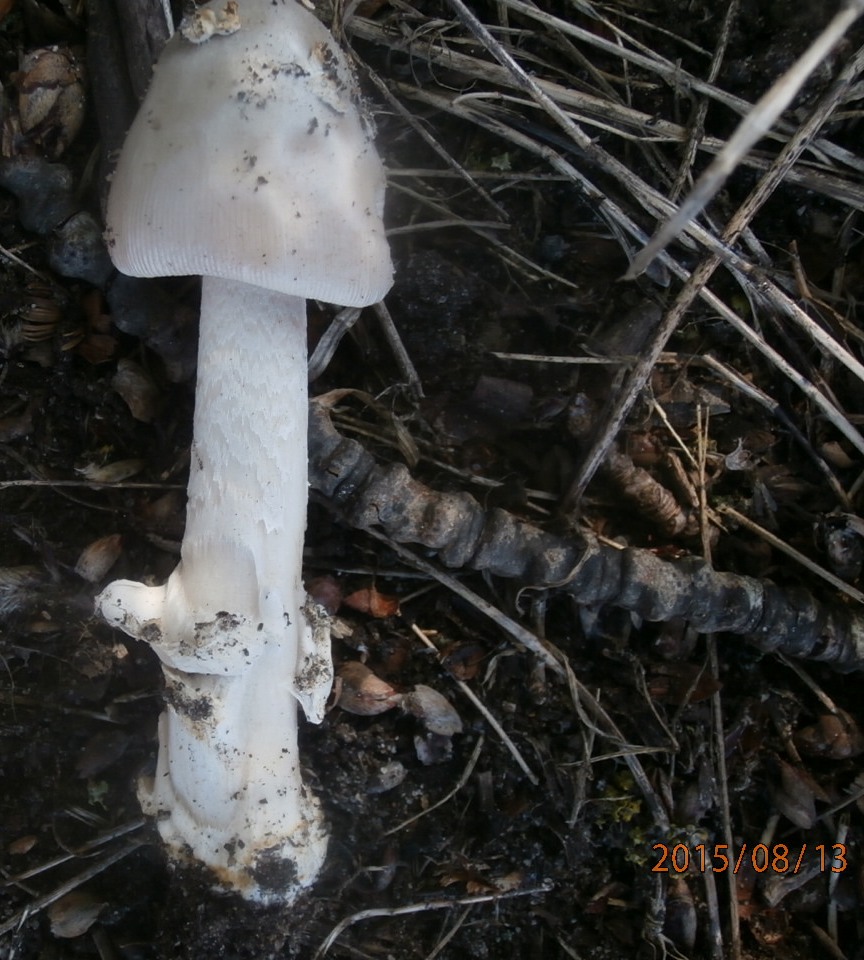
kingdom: Fungi
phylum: Basidiomycota
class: Agaricomycetes
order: Agaricales
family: Amanitaceae
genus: Amanita
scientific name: Amanita simulans
